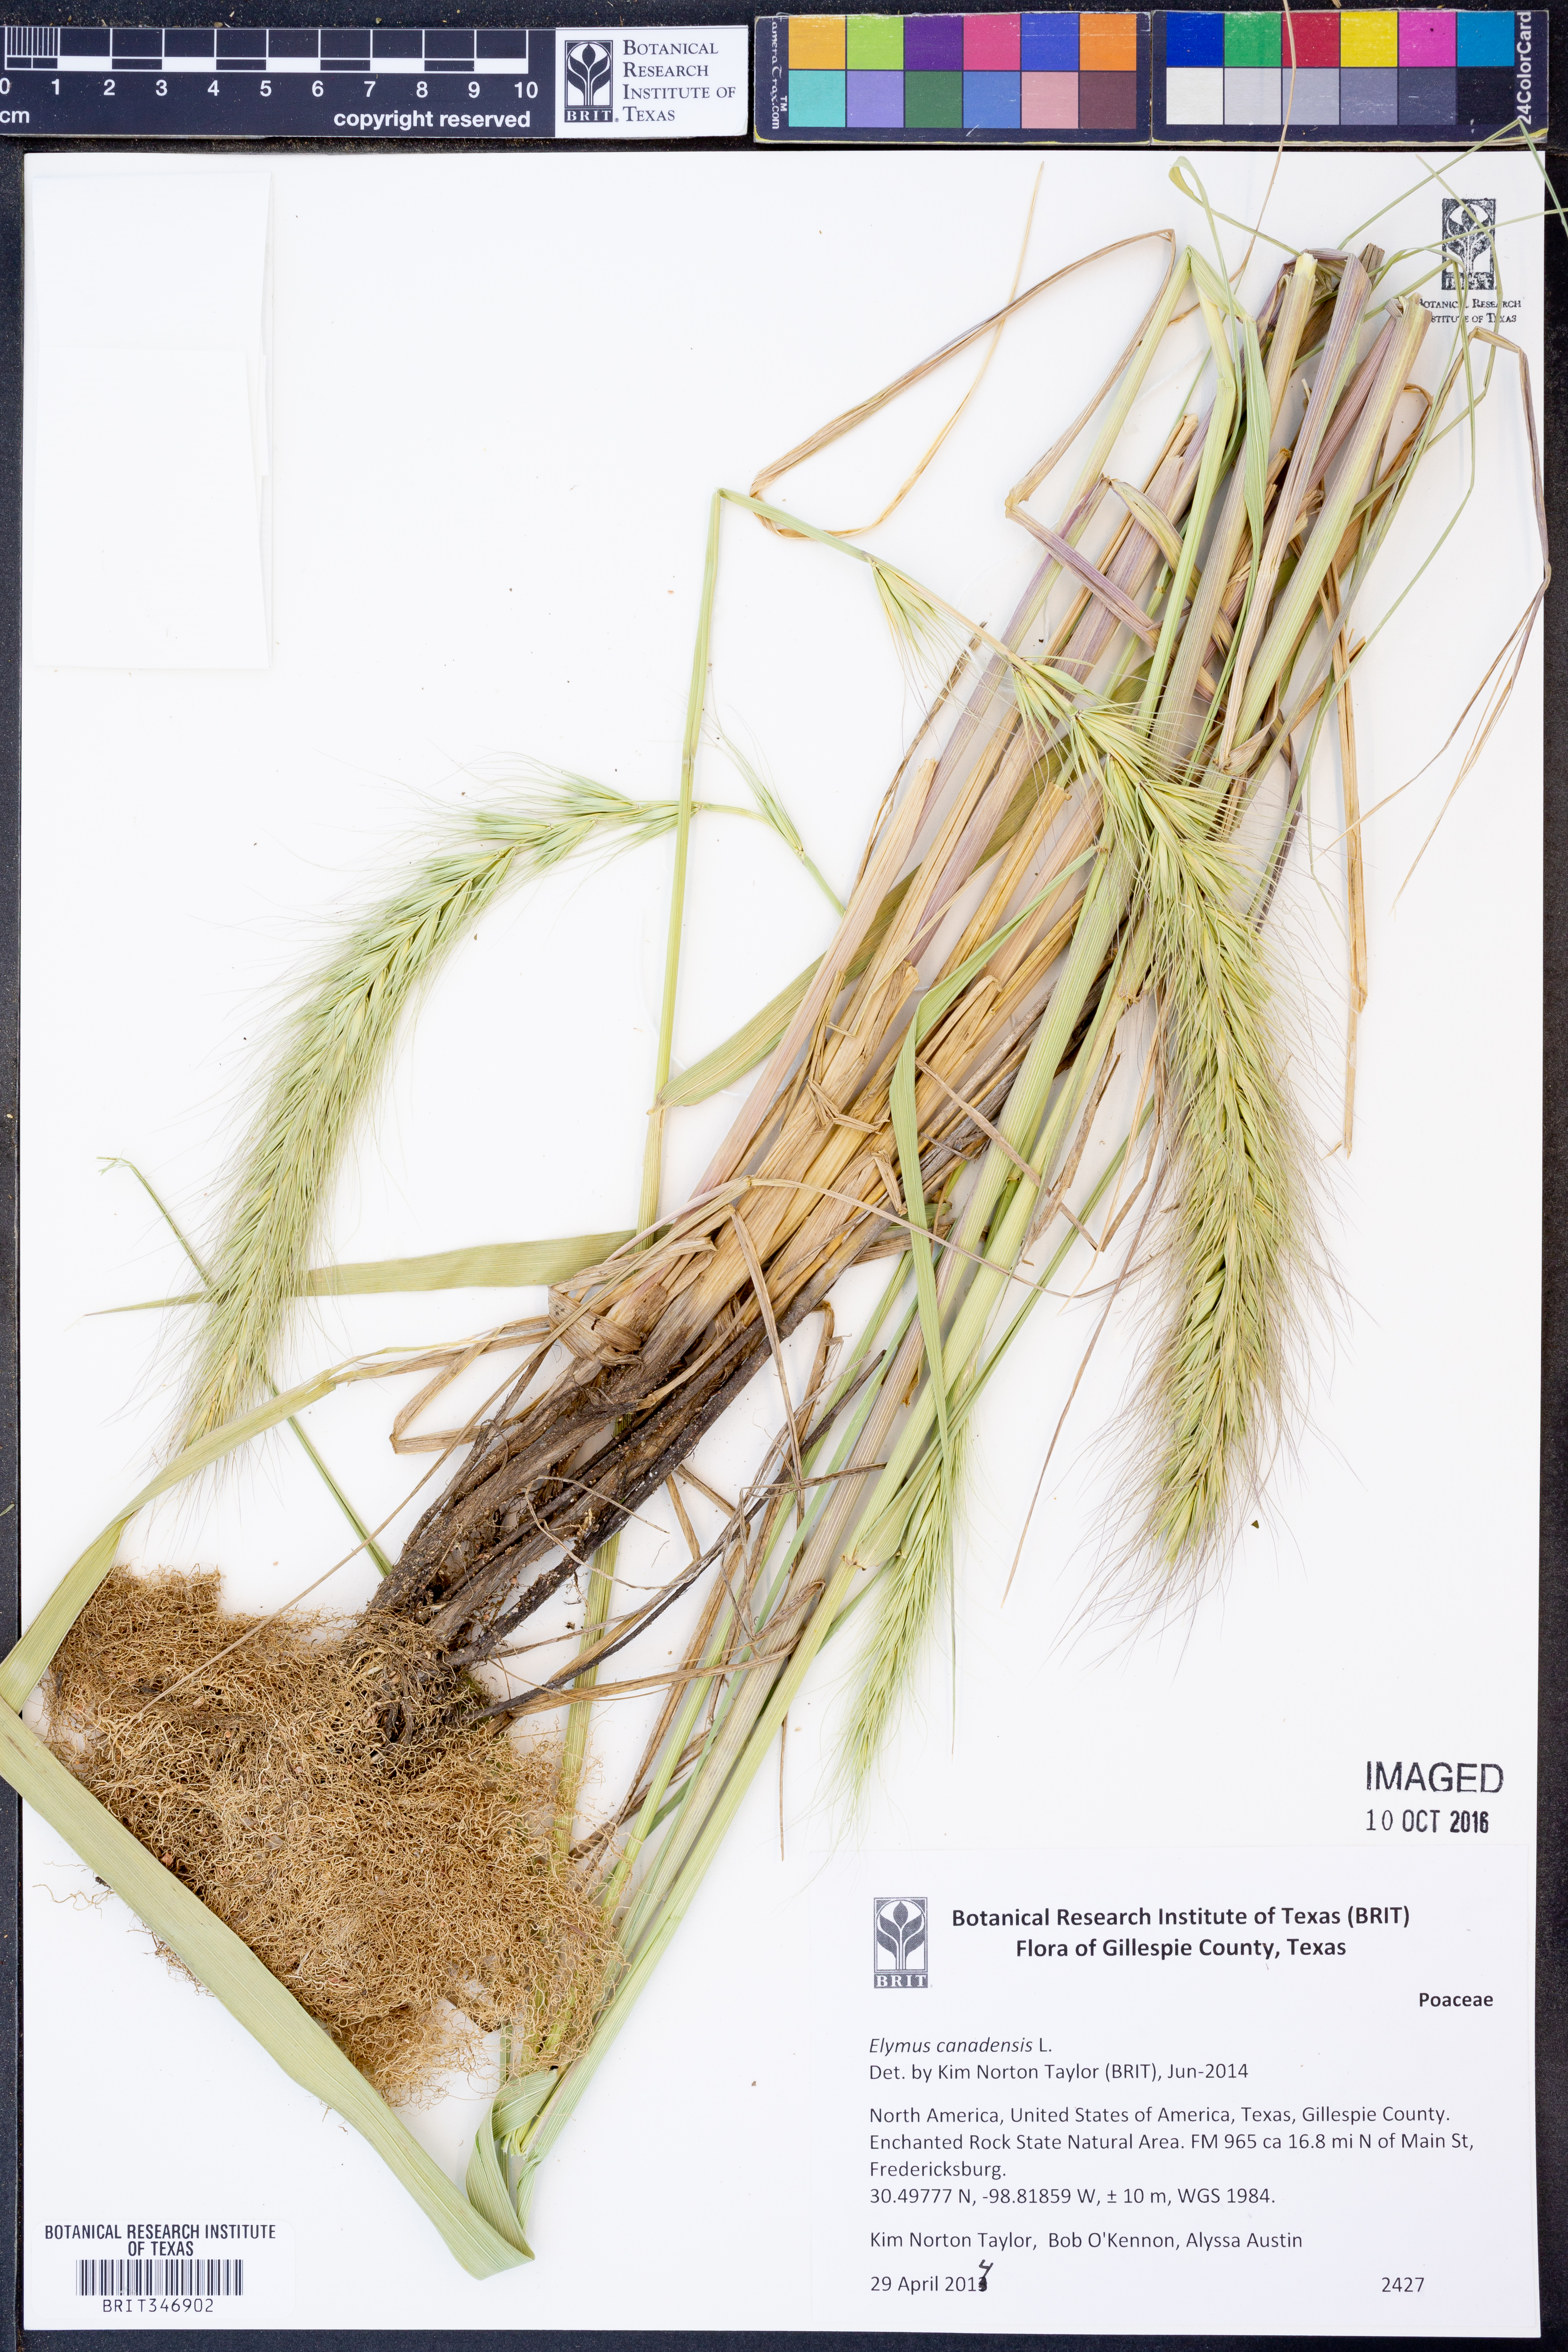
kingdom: Plantae
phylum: Tracheophyta
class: Liliopsida
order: Poales
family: Poaceae
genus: Elymus
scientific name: Elymus canadensis
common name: Canada wild rye
